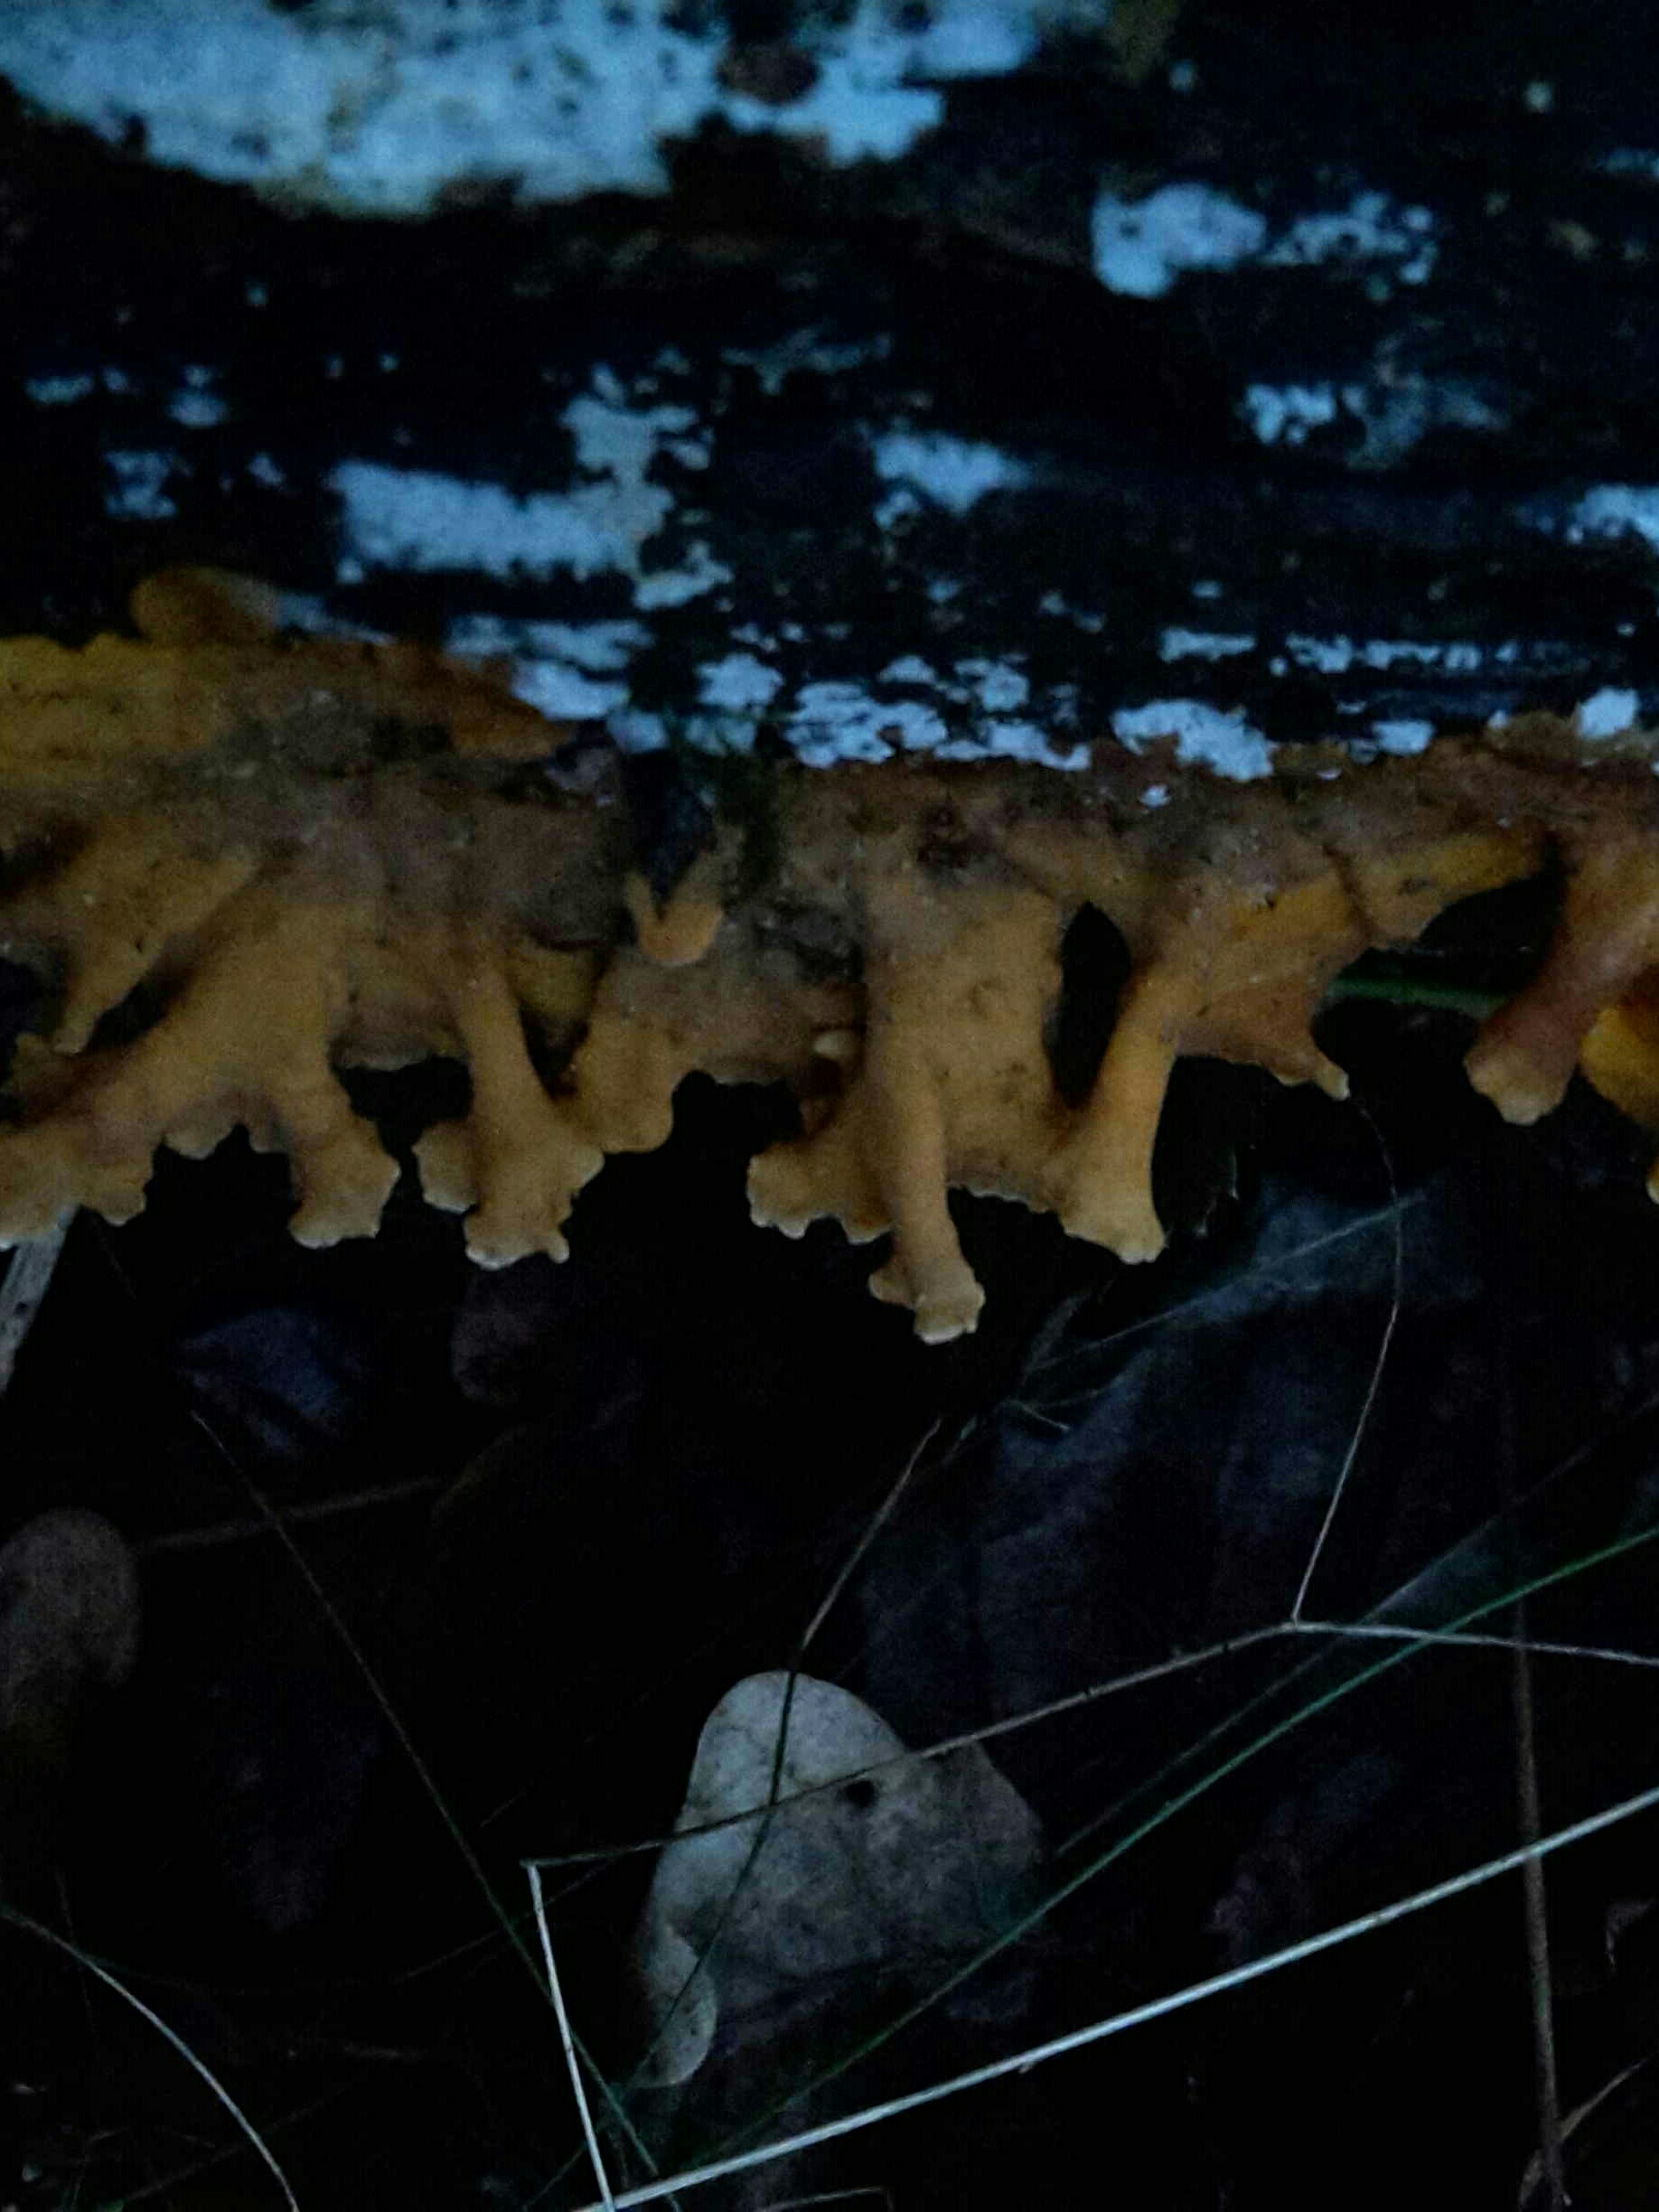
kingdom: Fungi
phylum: Basidiomycota
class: Agaricomycetes
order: Russulales
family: Stereaceae
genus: Stereum
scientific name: Stereum hirsutum
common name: håret lædersvamp
